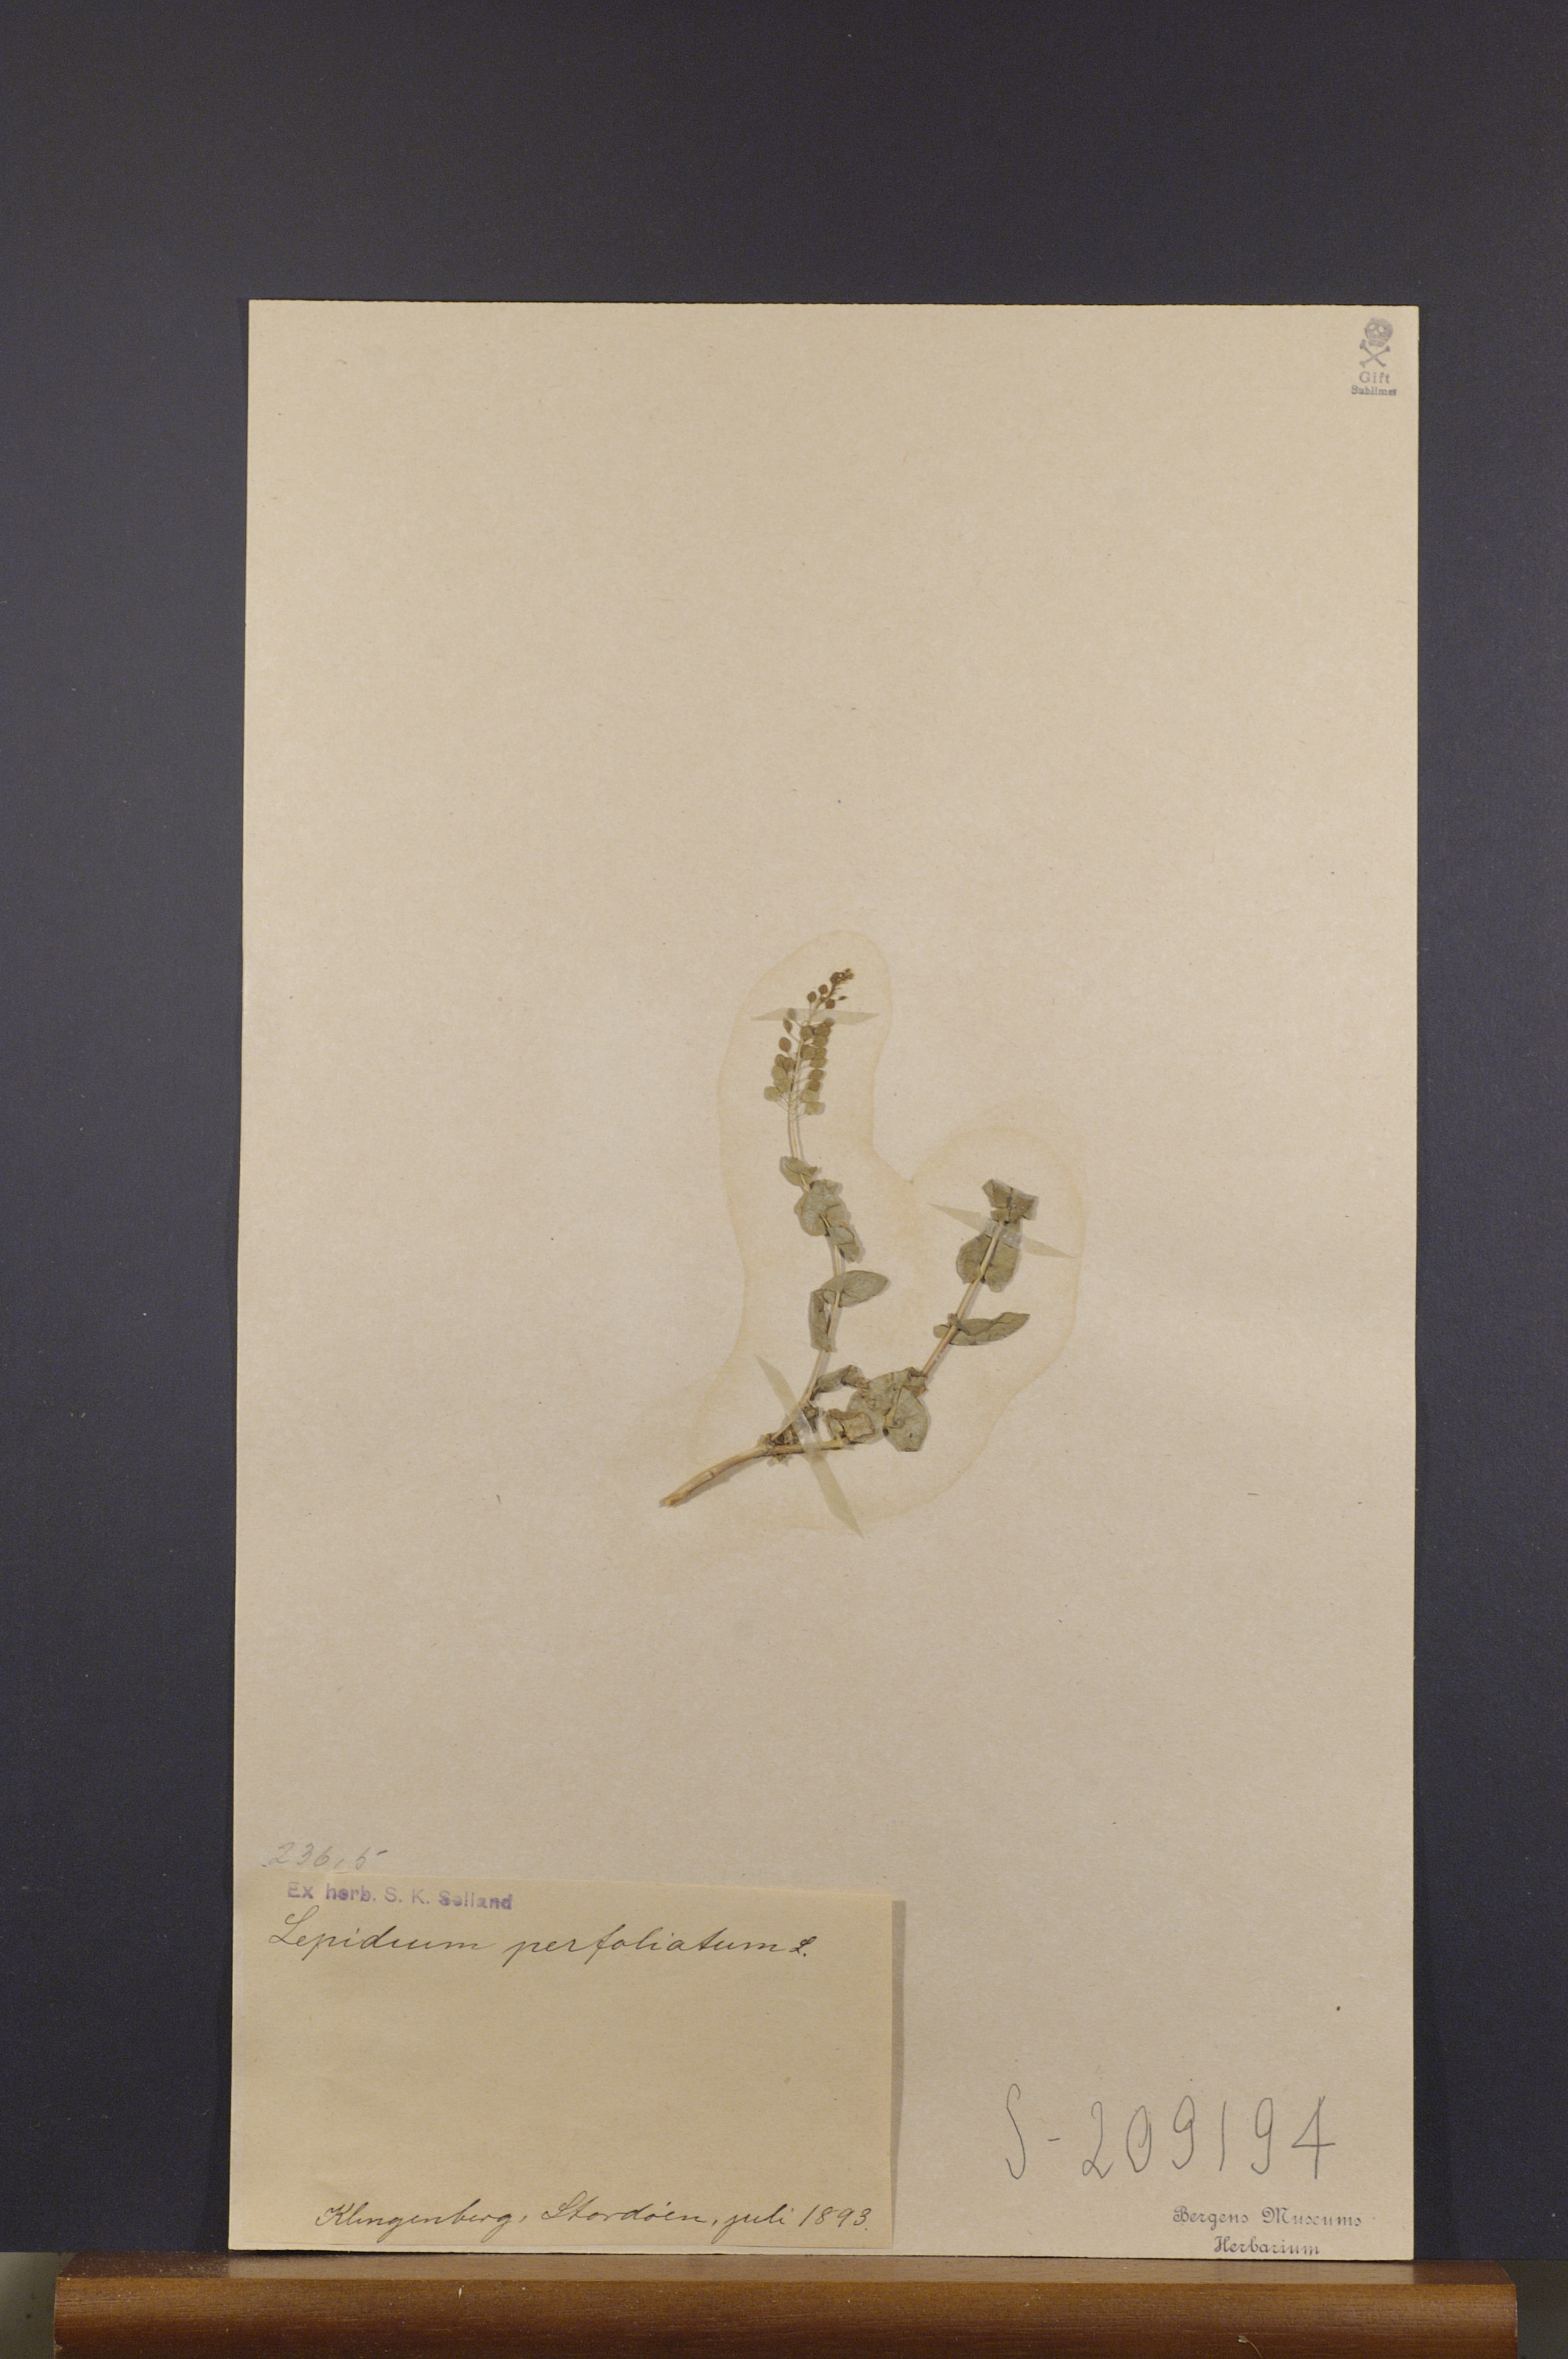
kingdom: Plantae
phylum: Tracheophyta
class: Magnoliopsida
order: Brassicales
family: Brassicaceae
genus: Lepidium
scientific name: Lepidium perfoliatum
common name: Perfoliate pepperwort
